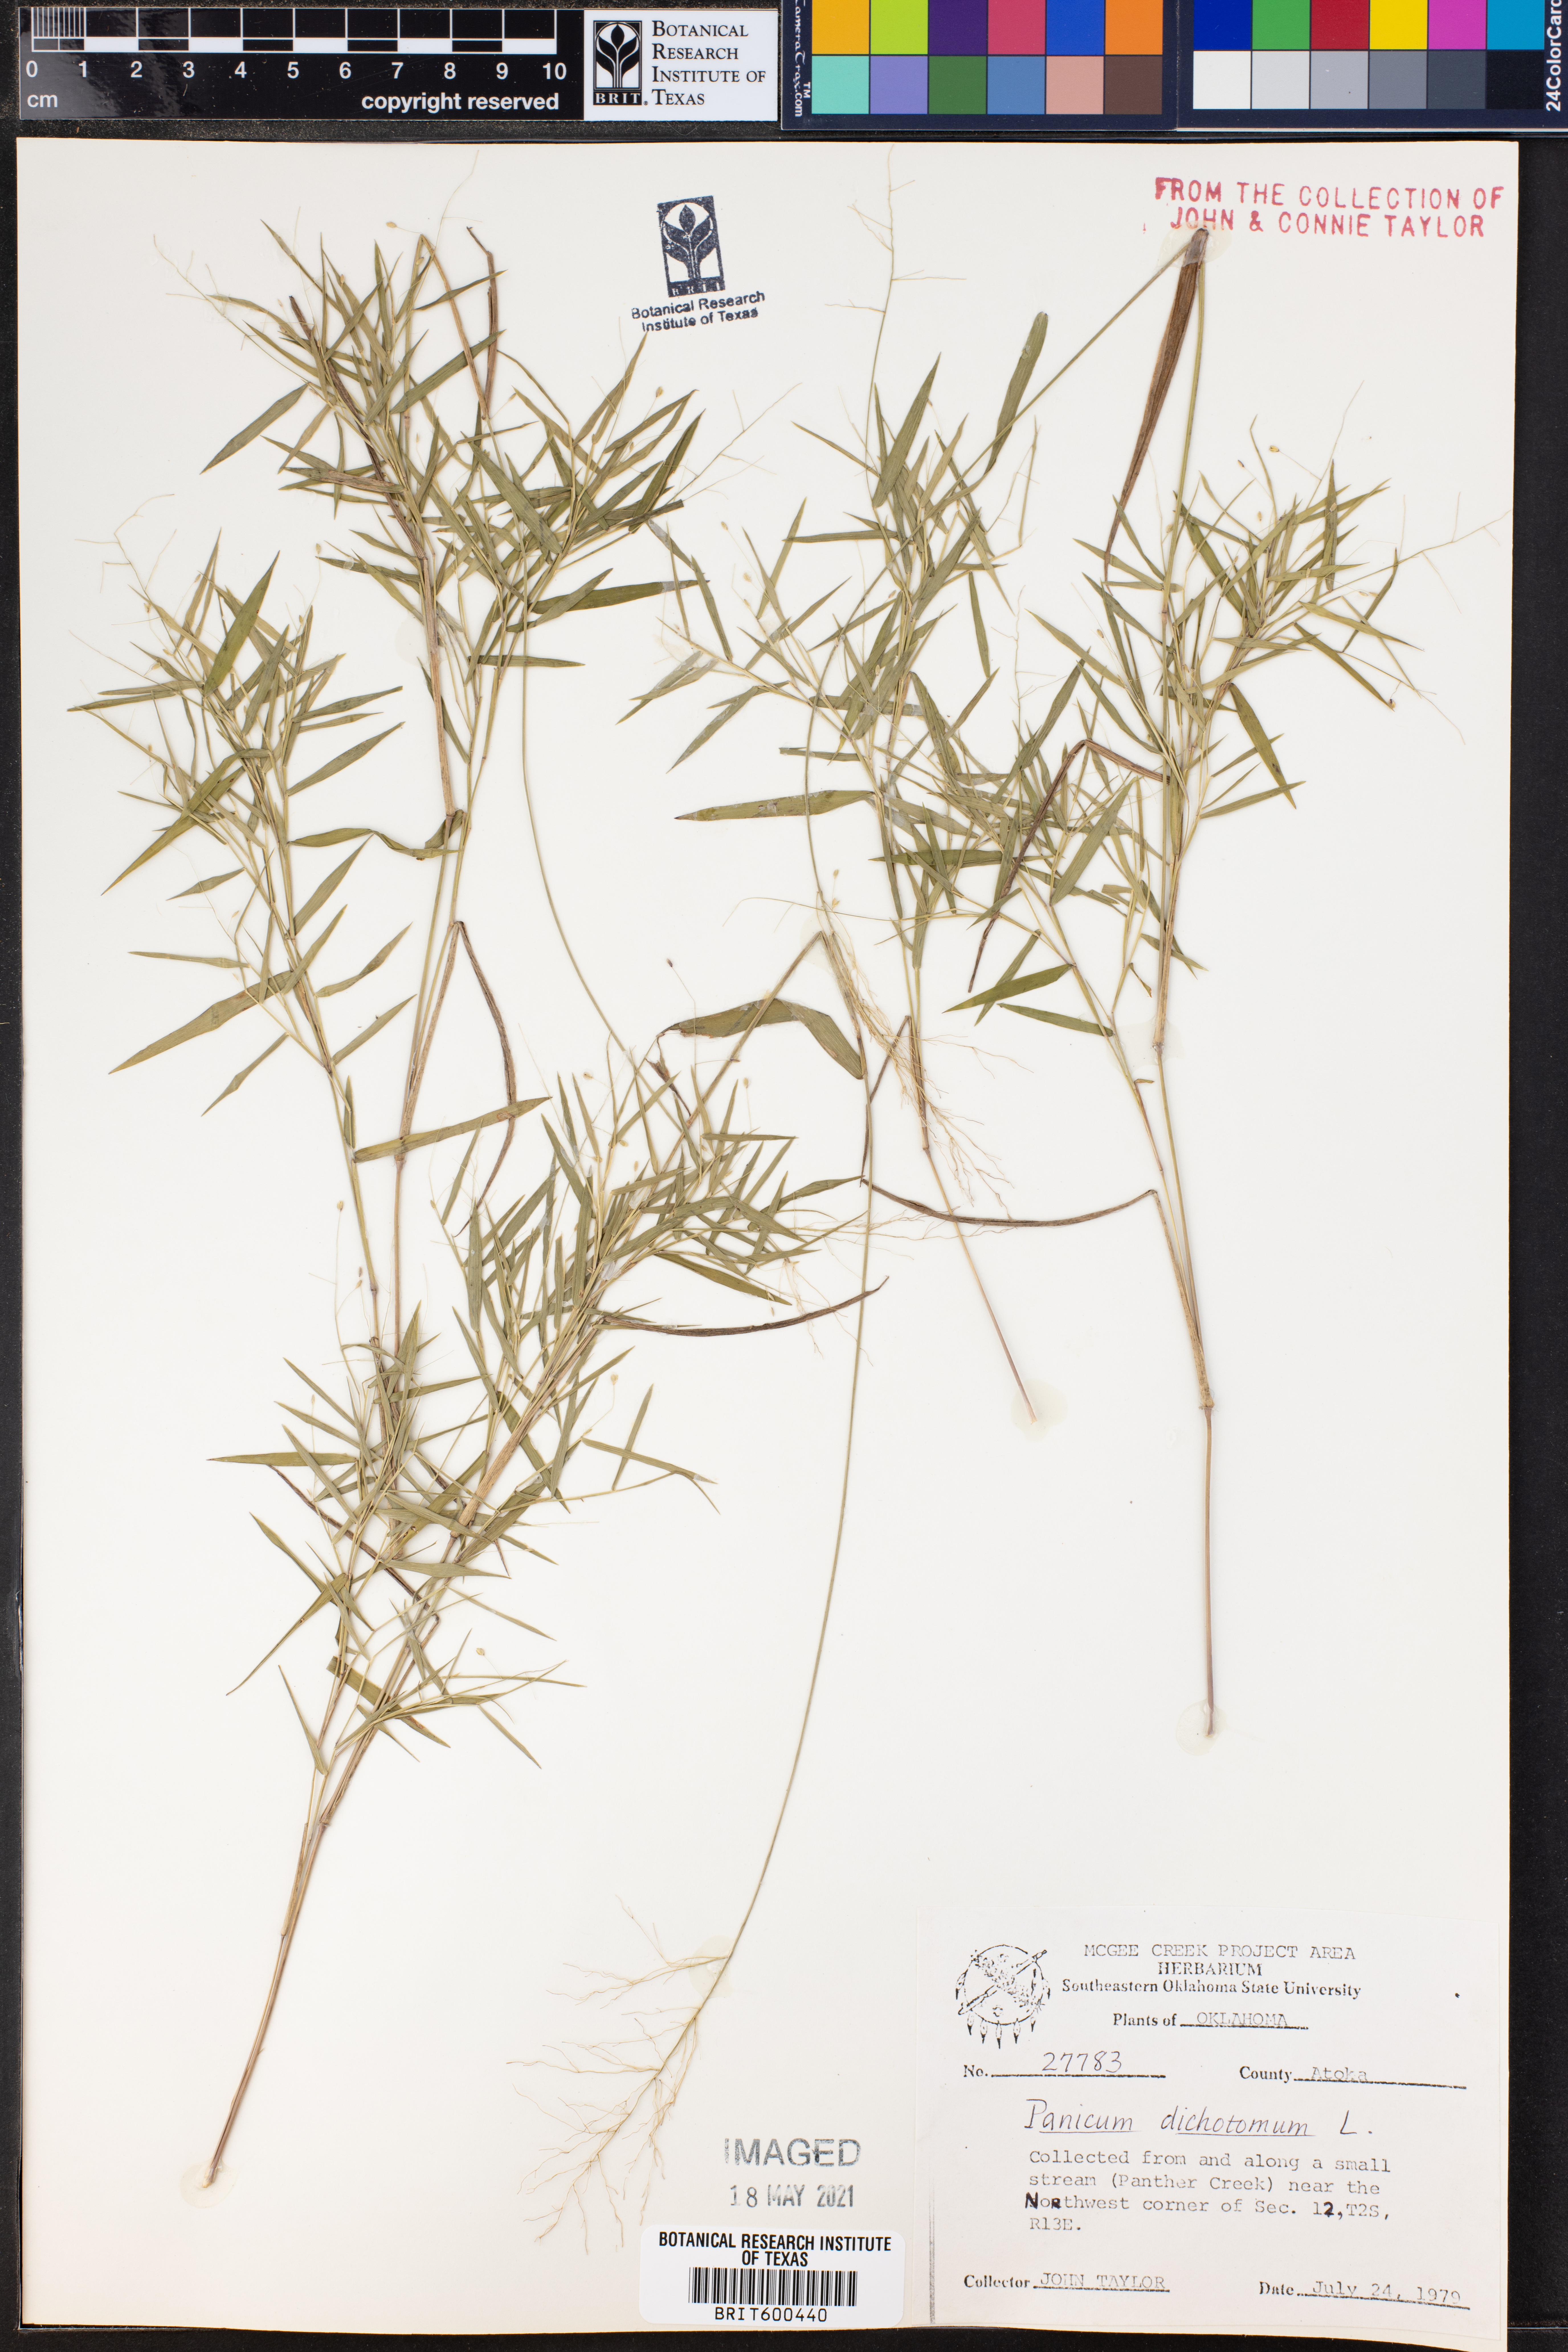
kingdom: Plantae
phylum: Tracheophyta
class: Liliopsida
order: Poales
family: Poaceae
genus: Dichanthelium
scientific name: Dichanthelium dichotomum
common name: Cypress panicgrass
